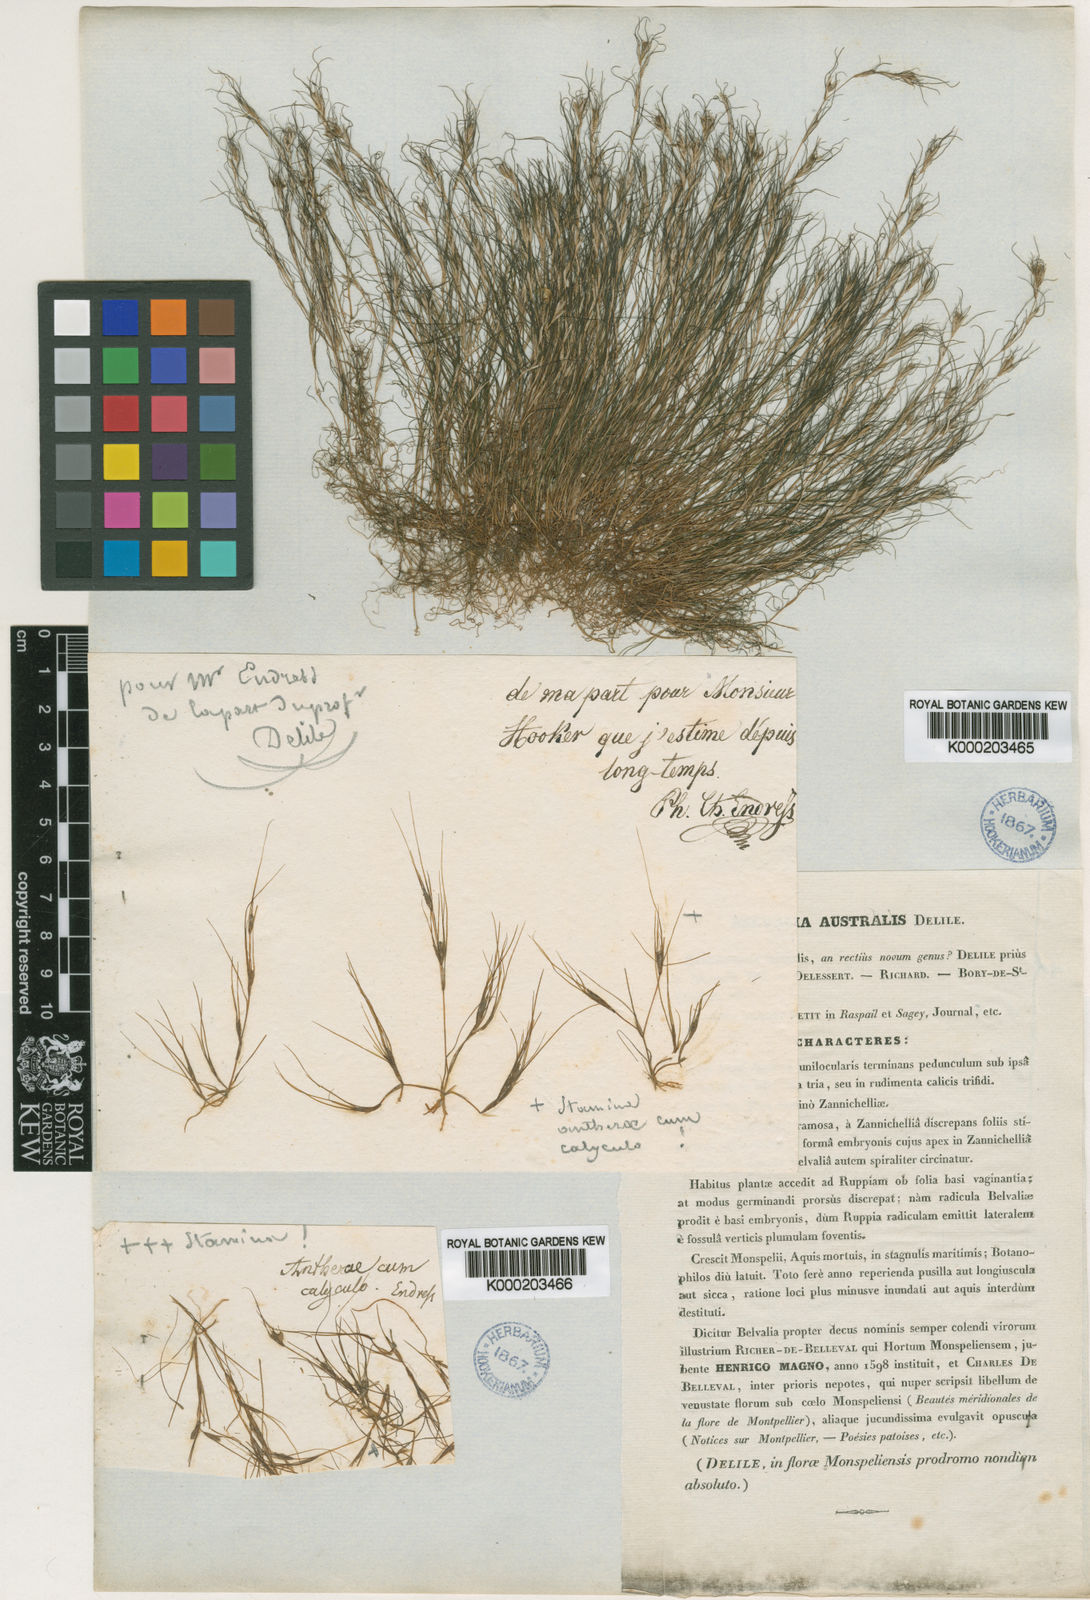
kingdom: Plantae
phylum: Tracheophyta
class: Liliopsida
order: Alismatales
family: Potamogetonaceae
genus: Althenia
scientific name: Althenia filiformis
